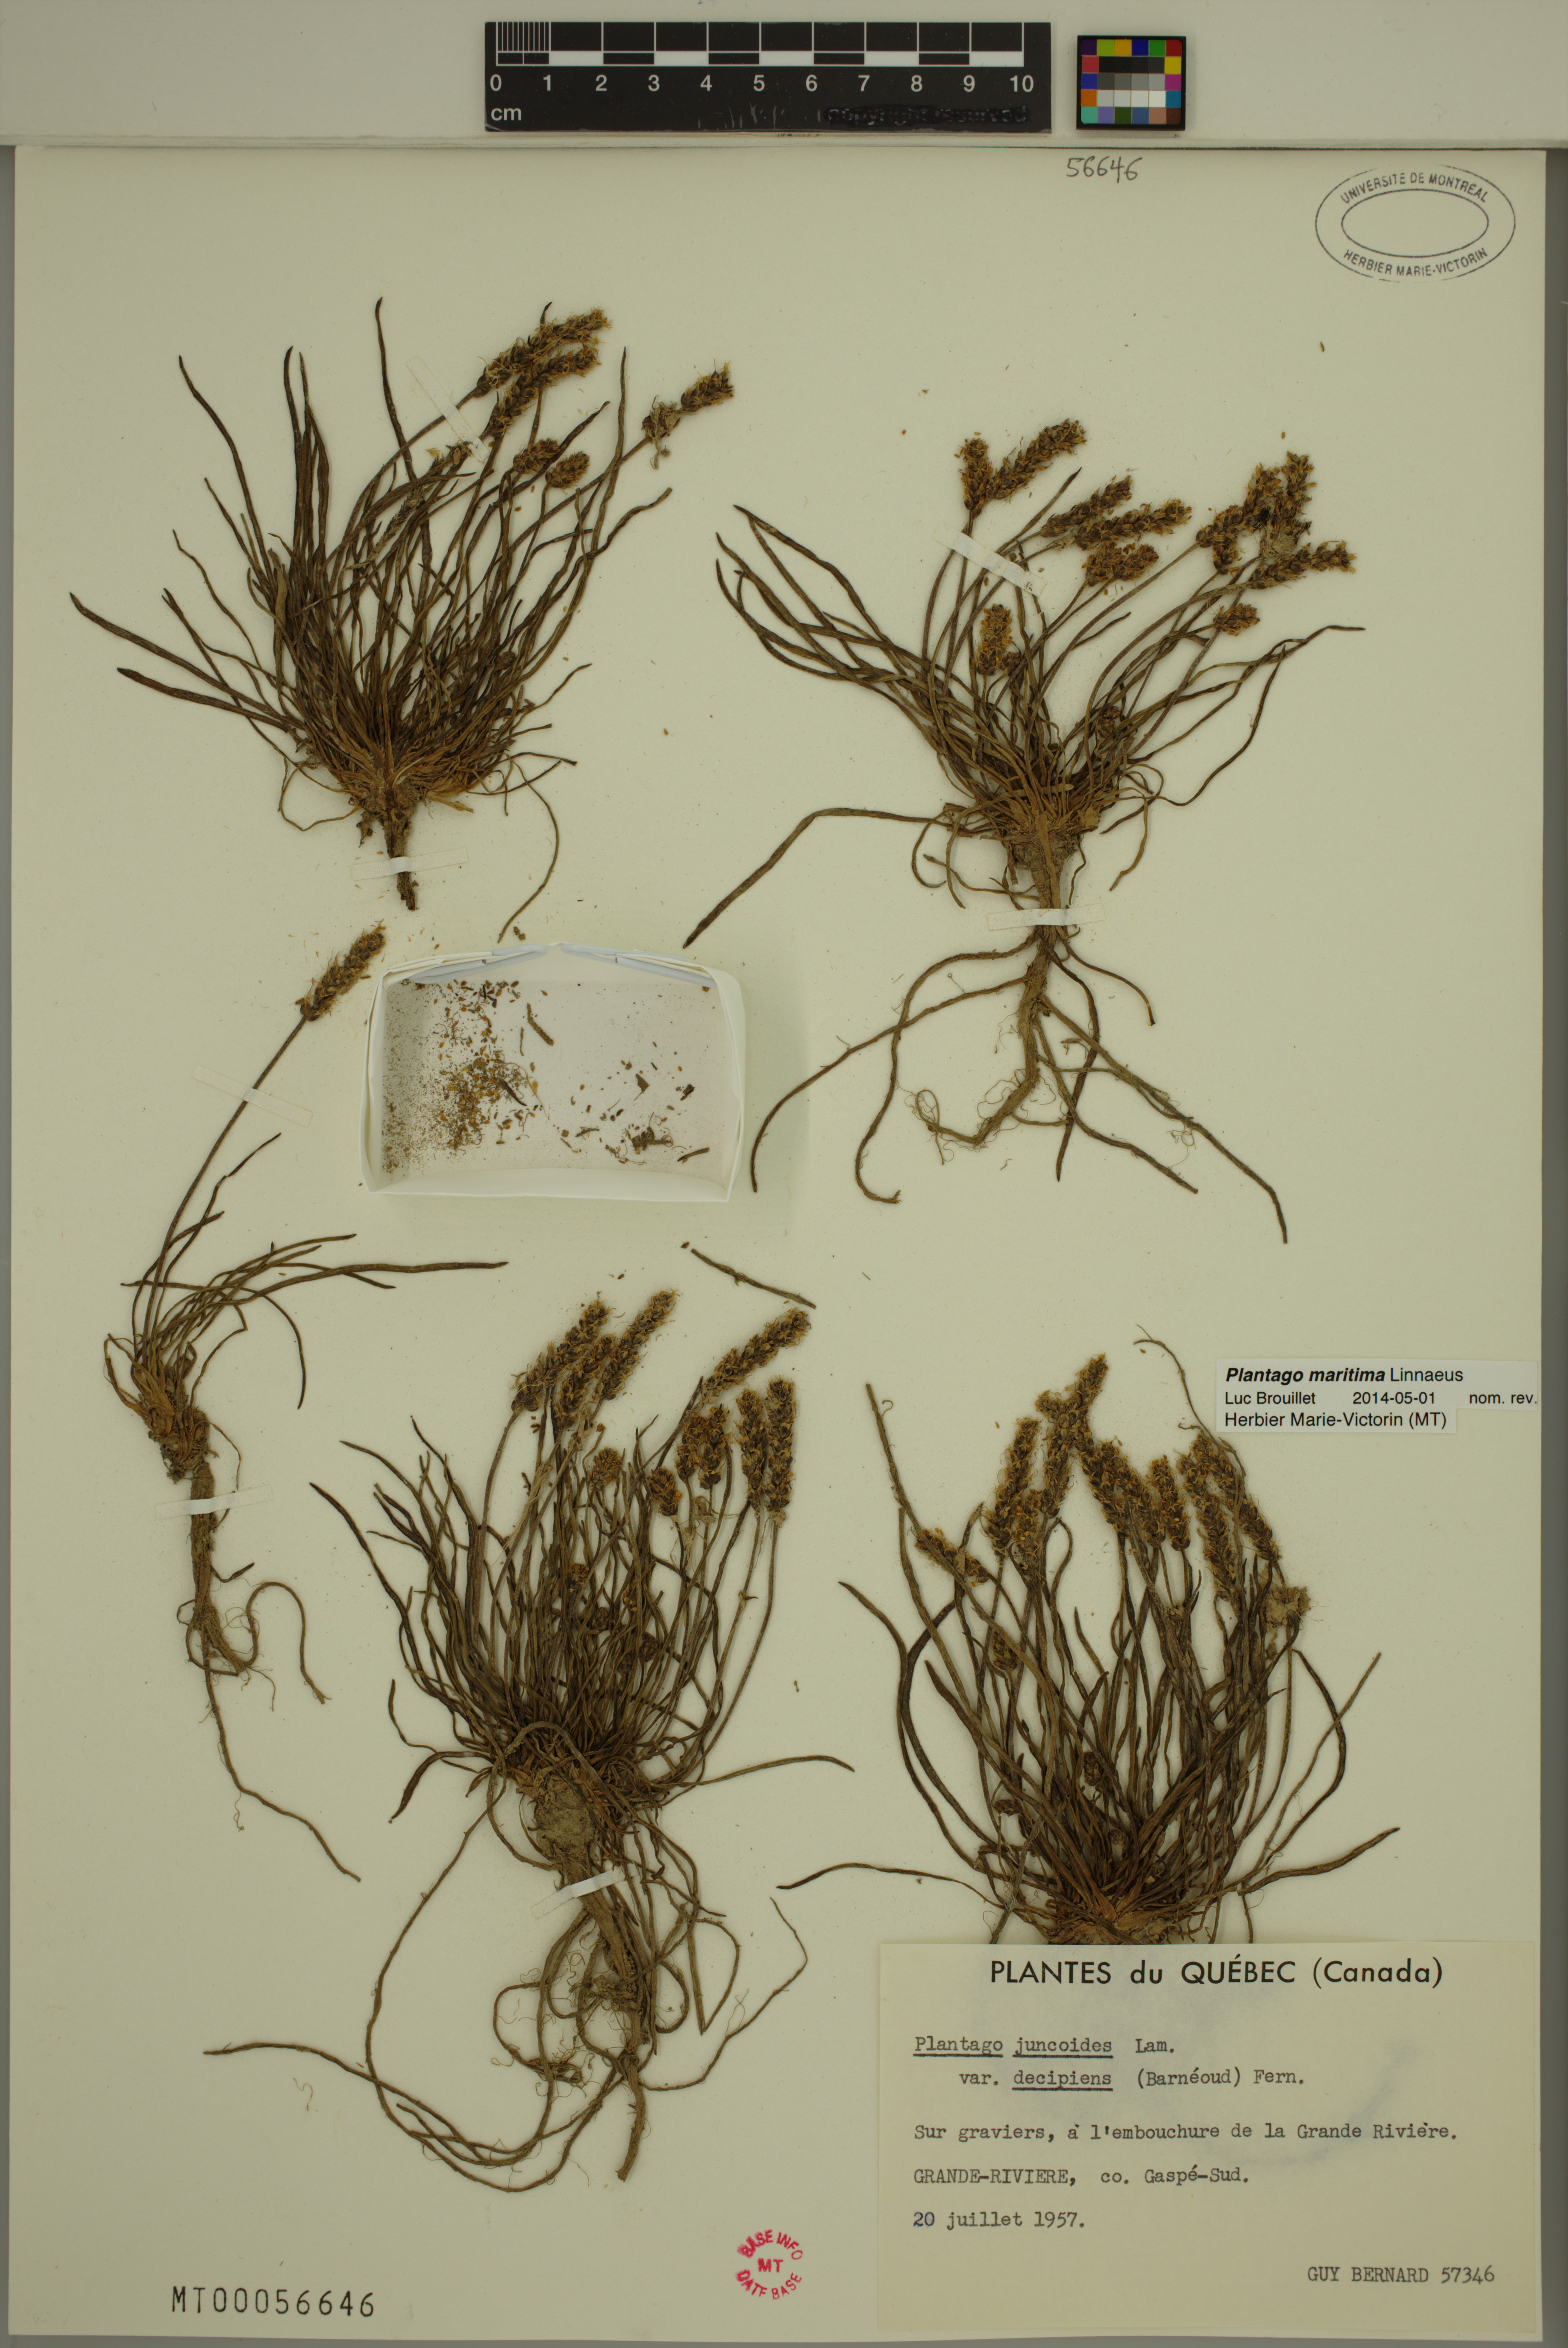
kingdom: Plantae
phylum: Tracheophyta
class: Magnoliopsida
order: Lamiales
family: Plantaginaceae
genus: Plantago
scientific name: Plantago maritima
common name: Sea plantain
